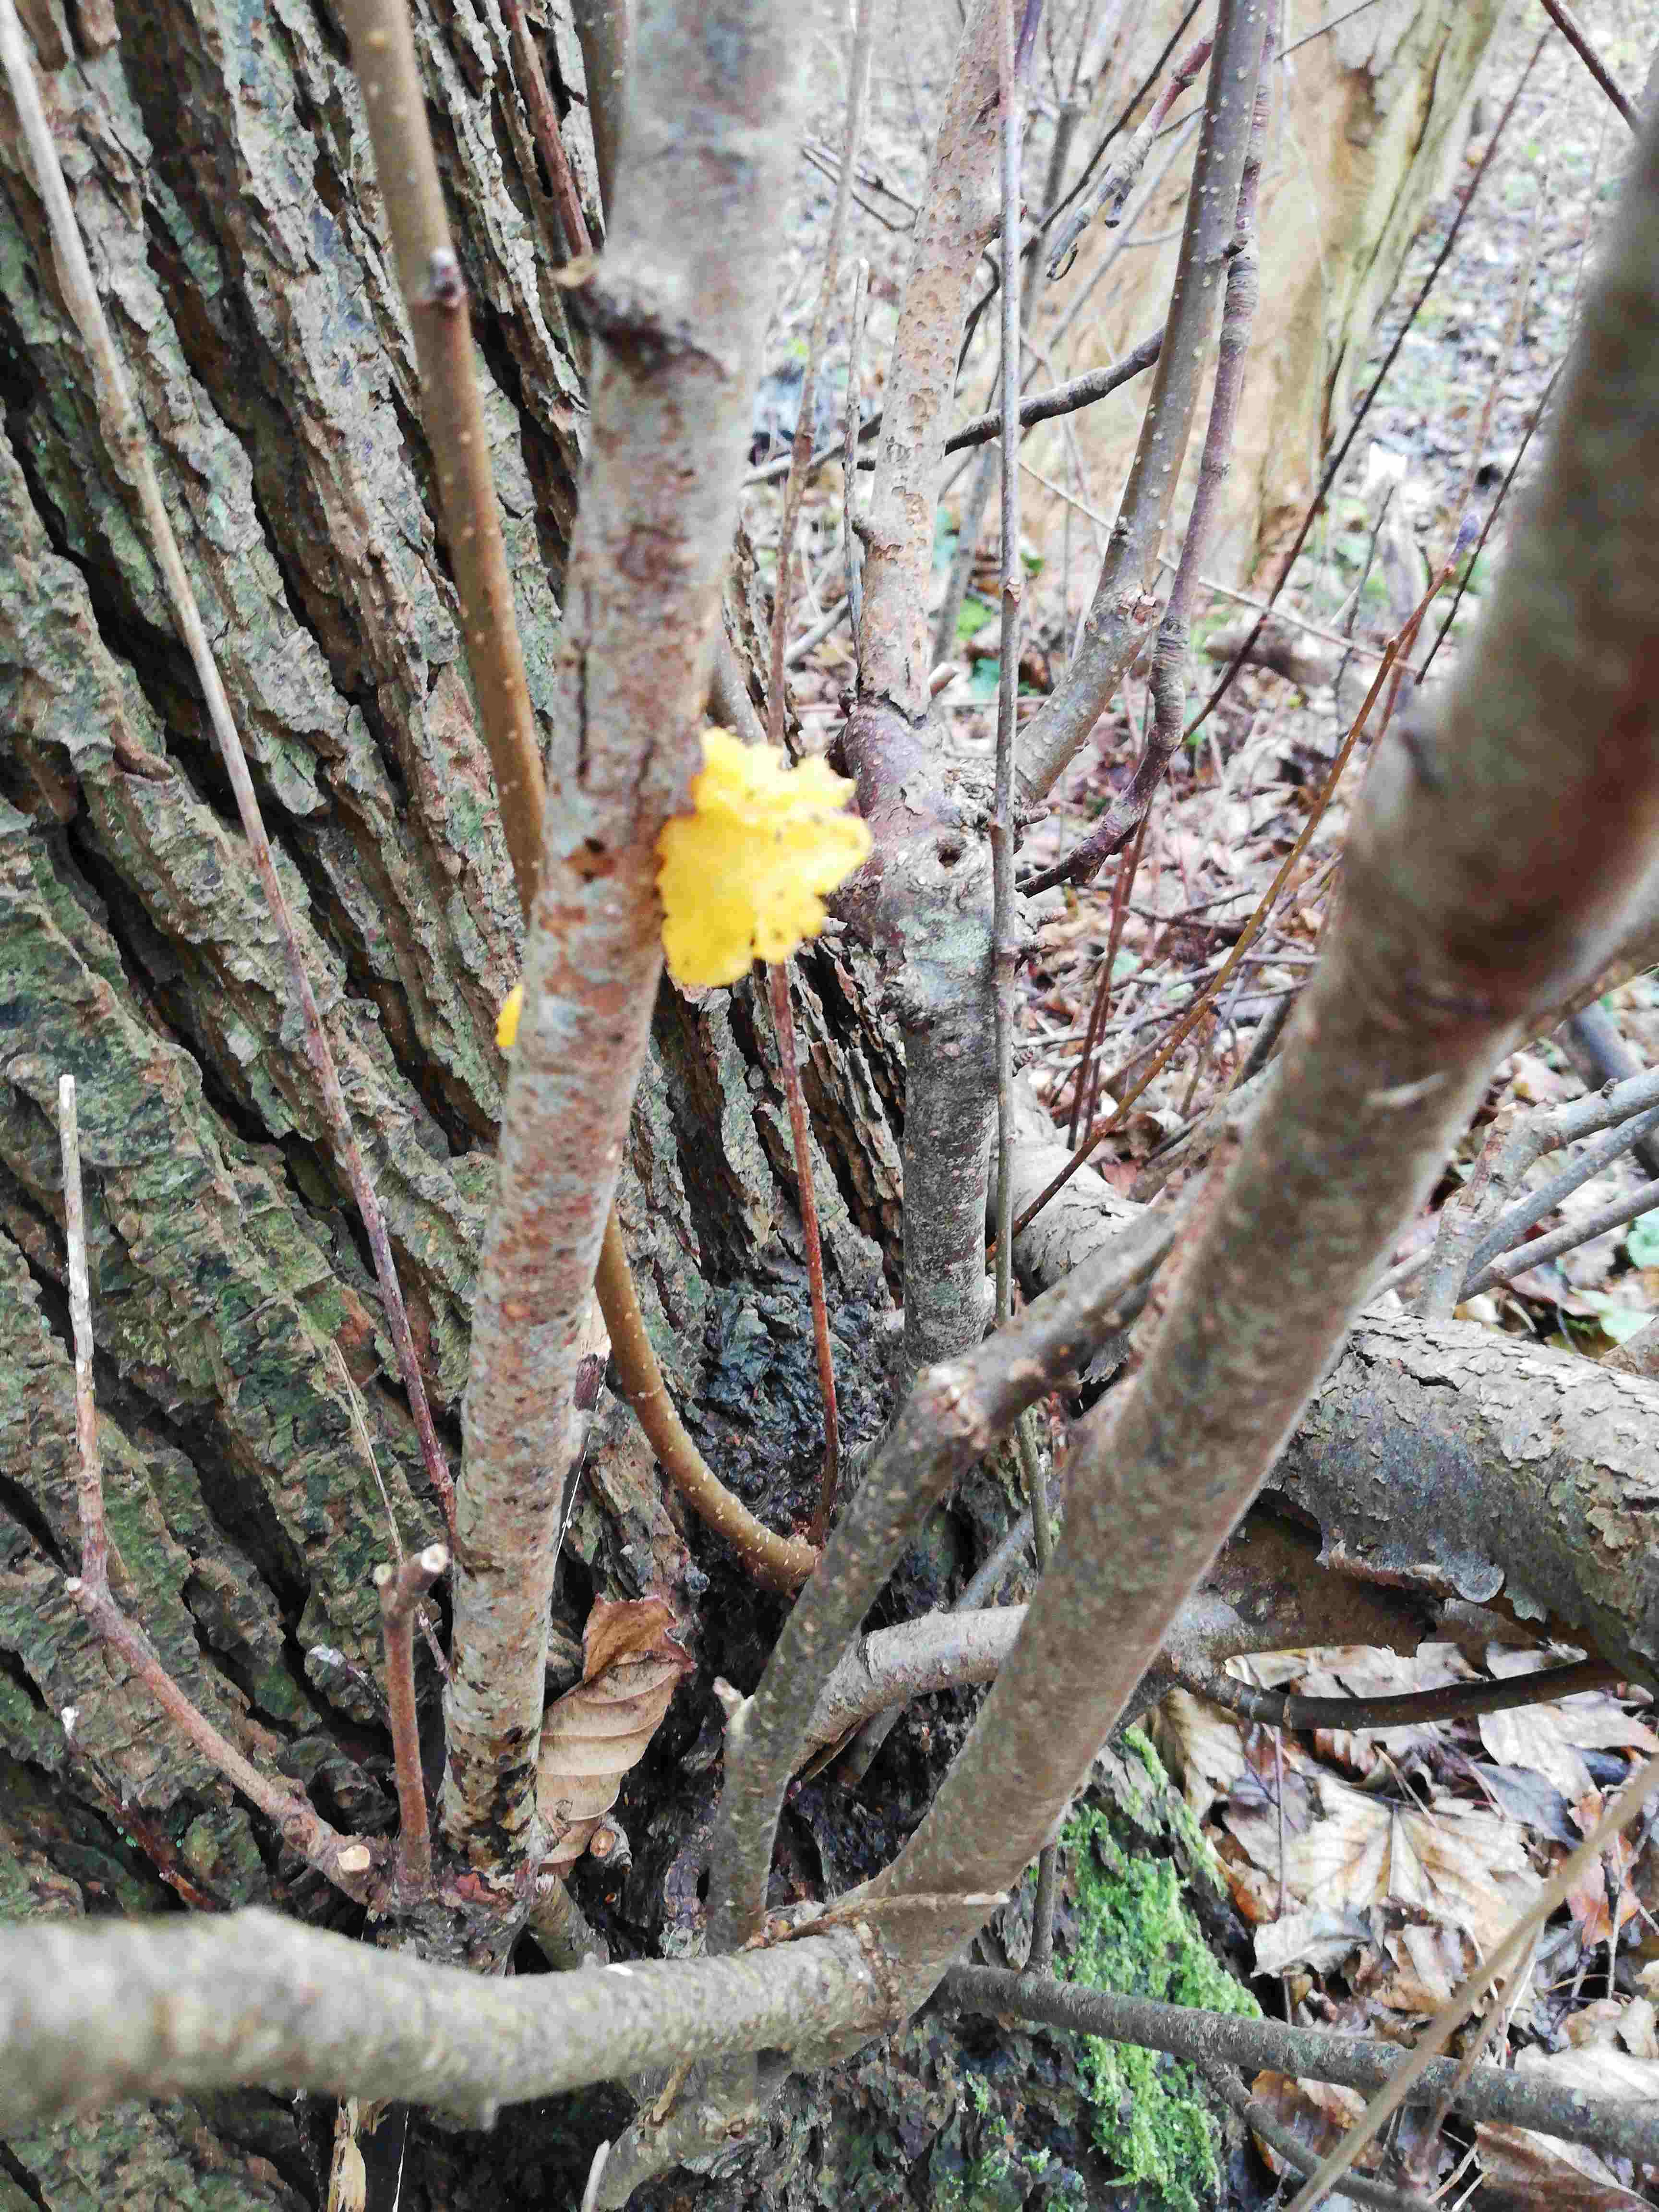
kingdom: Fungi
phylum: Basidiomycota
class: Tremellomycetes
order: Tremellales
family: Tremellaceae
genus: Tremella
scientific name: Tremella mesenterica
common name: gul bævresvamp
